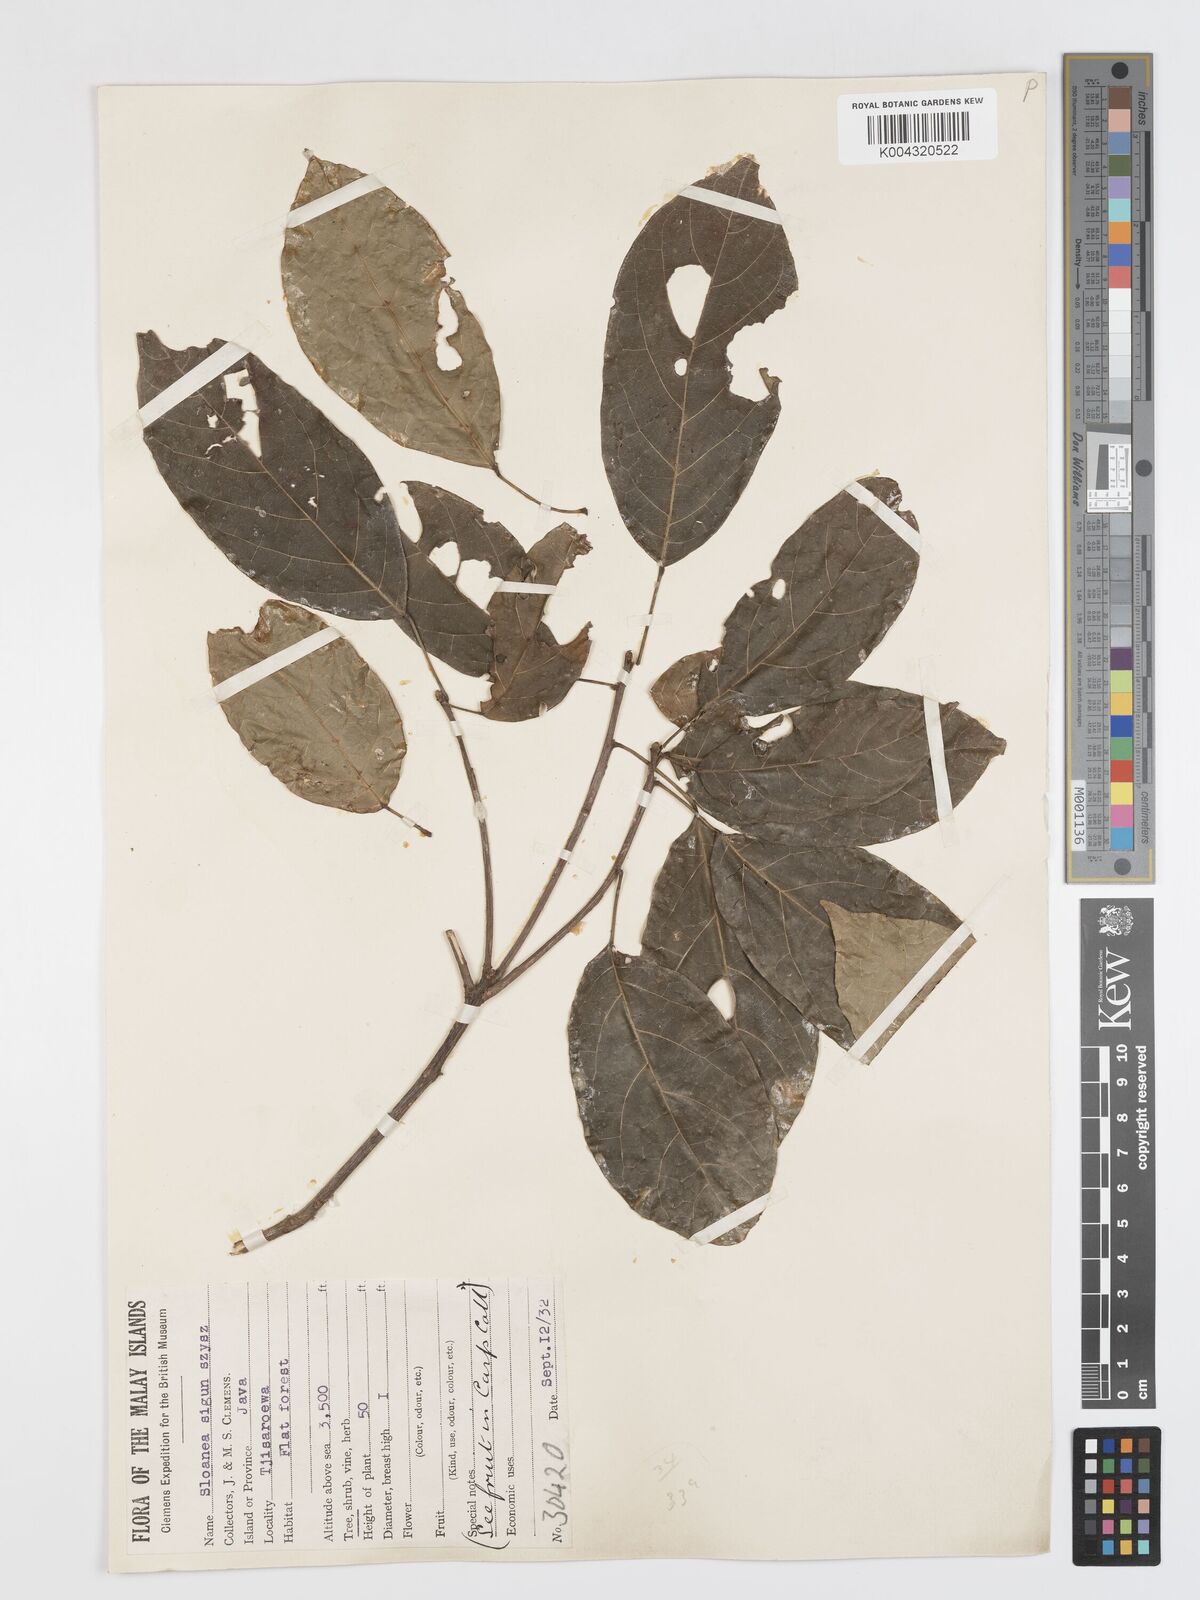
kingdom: Plantae
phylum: Tracheophyta
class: Magnoliopsida
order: Oxalidales
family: Elaeocarpaceae
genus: Sloanea
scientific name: Sloanea sigun
